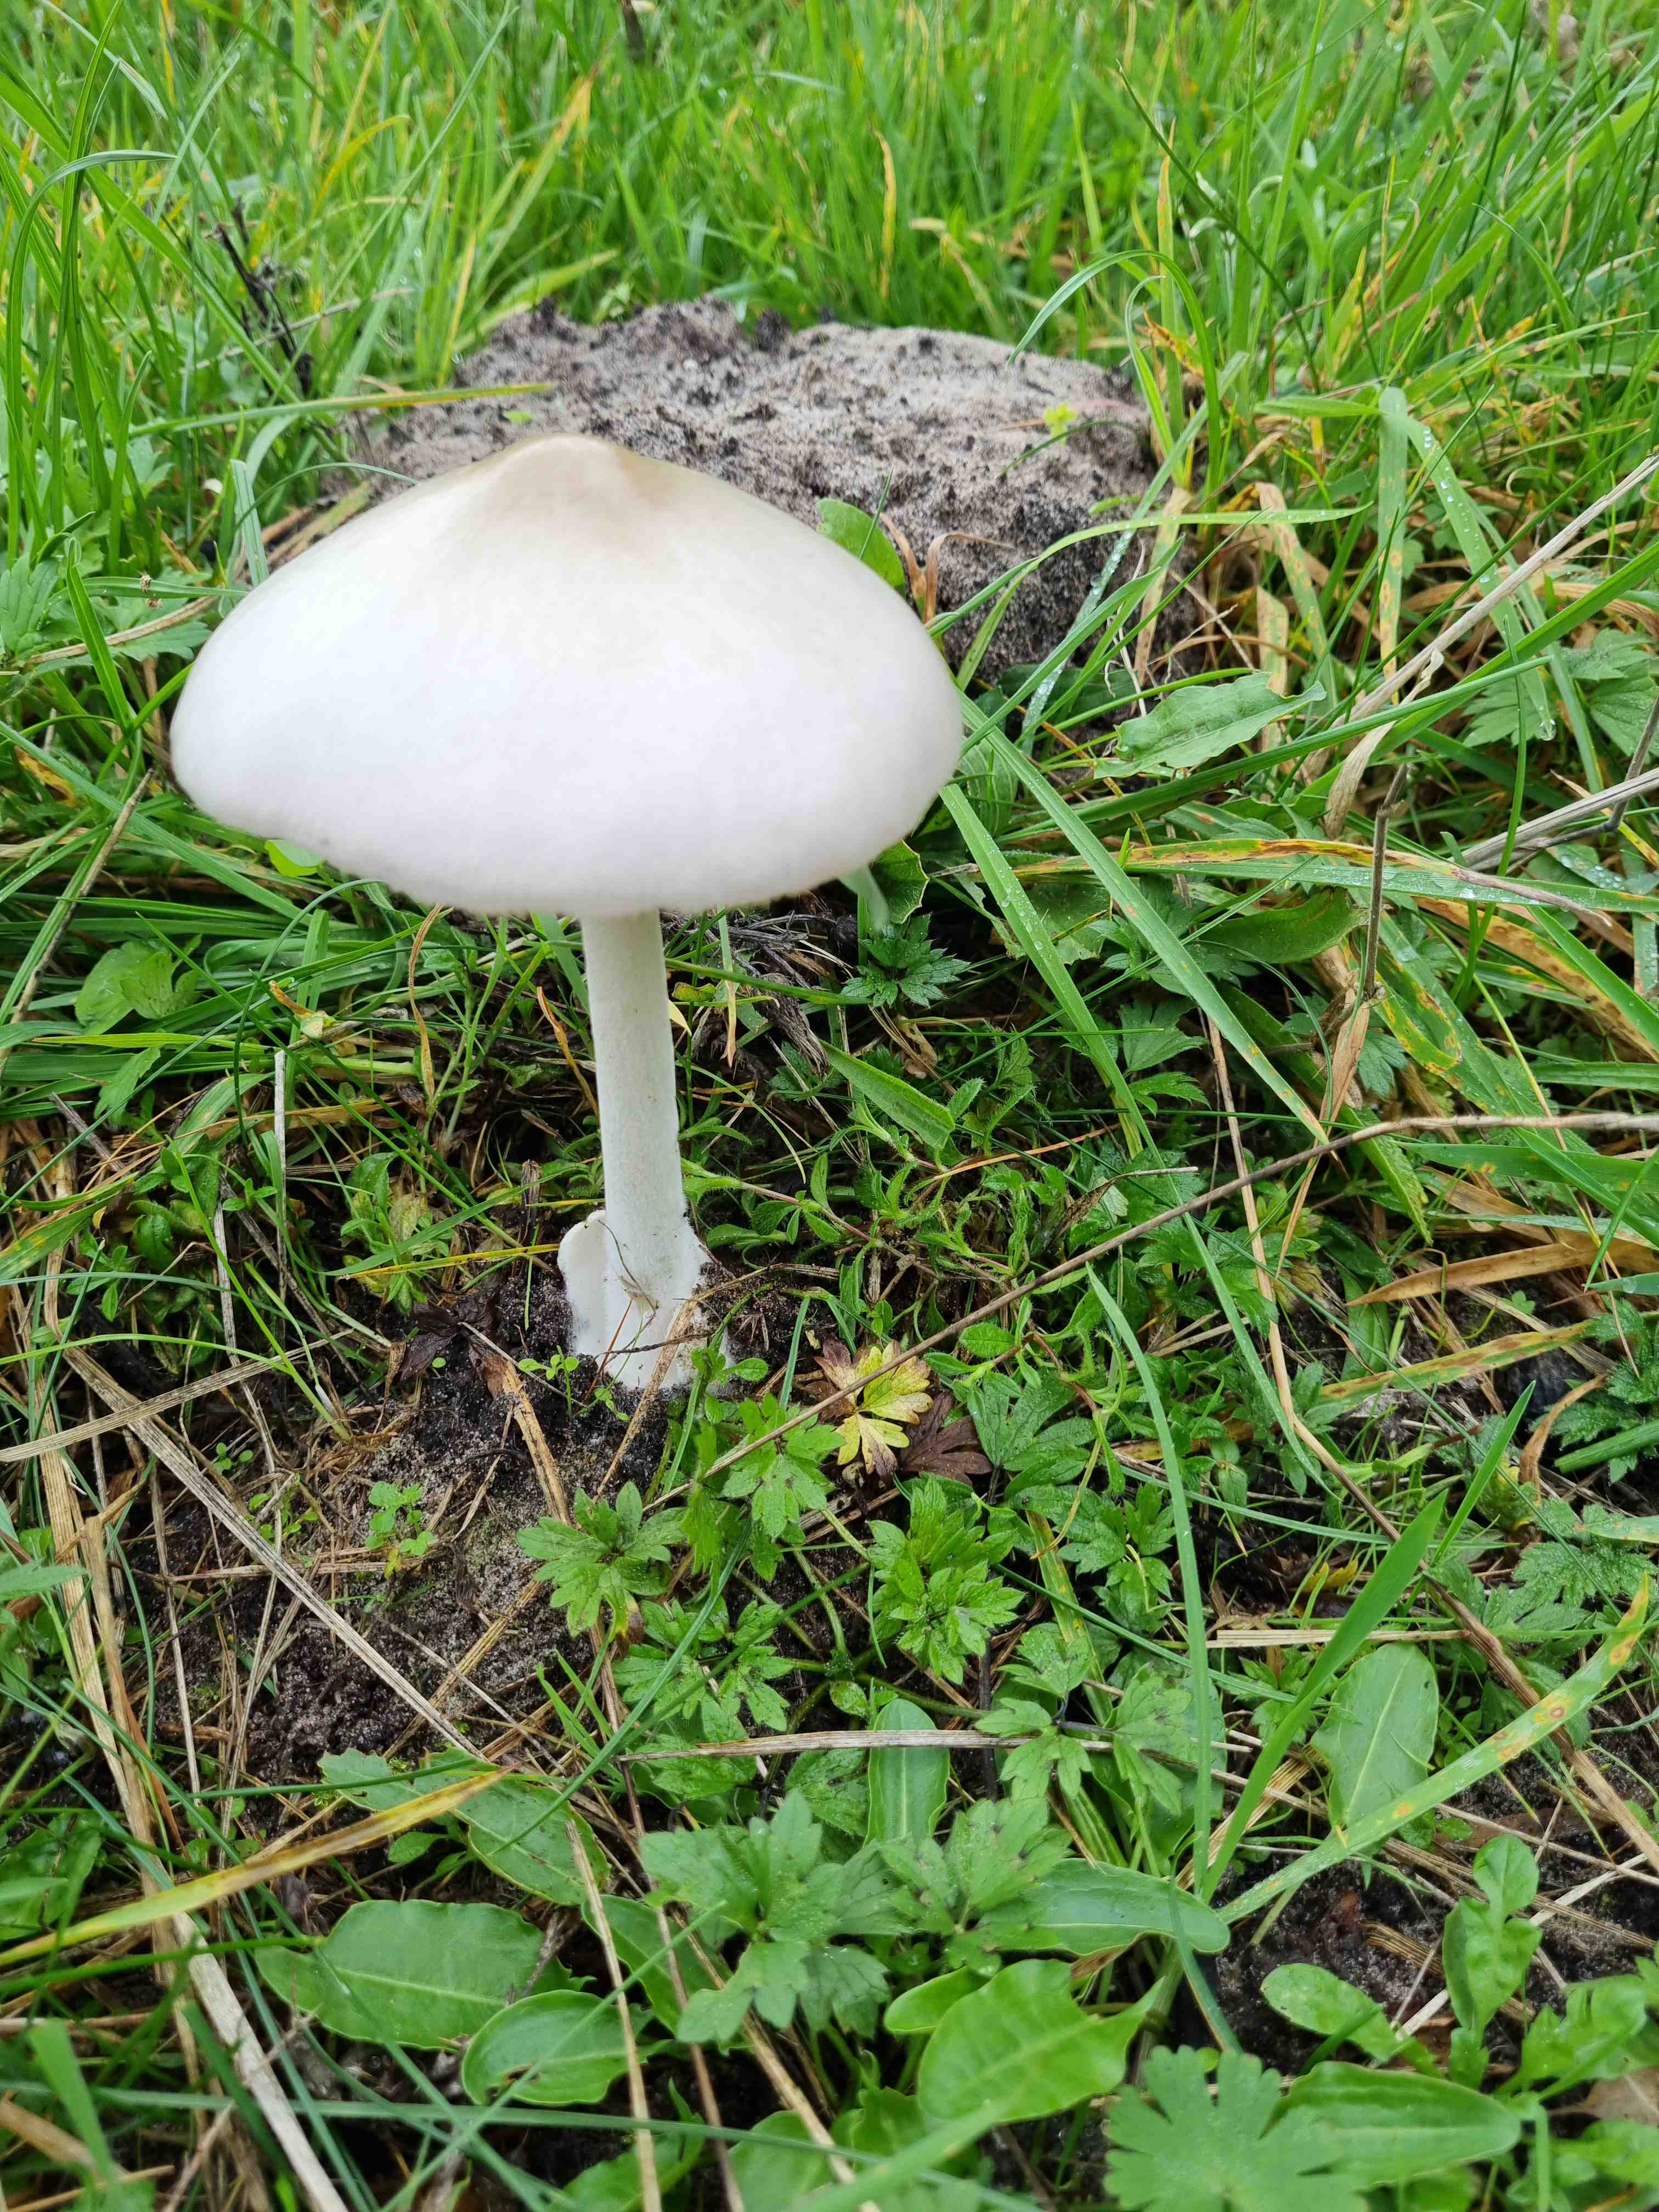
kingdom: Fungi
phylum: Basidiomycota
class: Agaricomycetes
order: Agaricales
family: Pluteaceae
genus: Volvopluteus
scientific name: Volvopluteus gloiocephalus
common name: høj posesvamp
